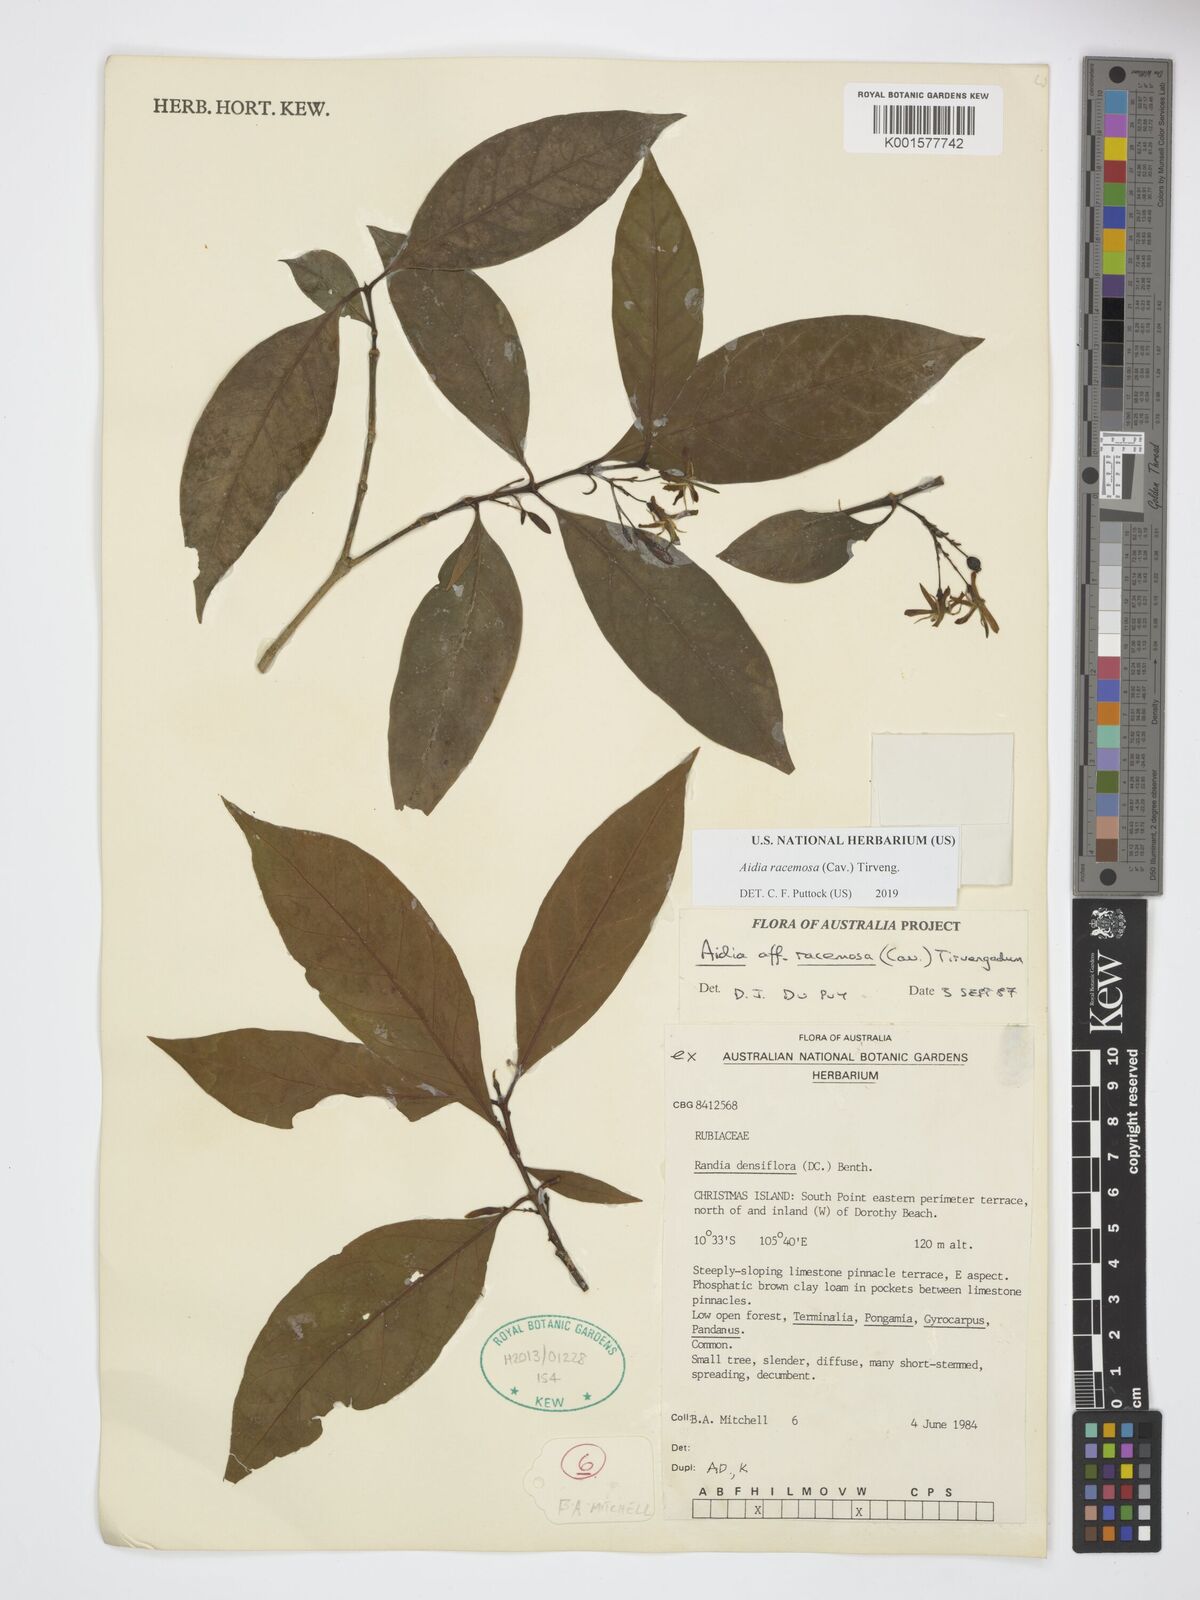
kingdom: Plantae
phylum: Tracheophyta
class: Magnoliopsida
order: Gentianales
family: Rubiaceae
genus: Aidia
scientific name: Aidia racemosa
